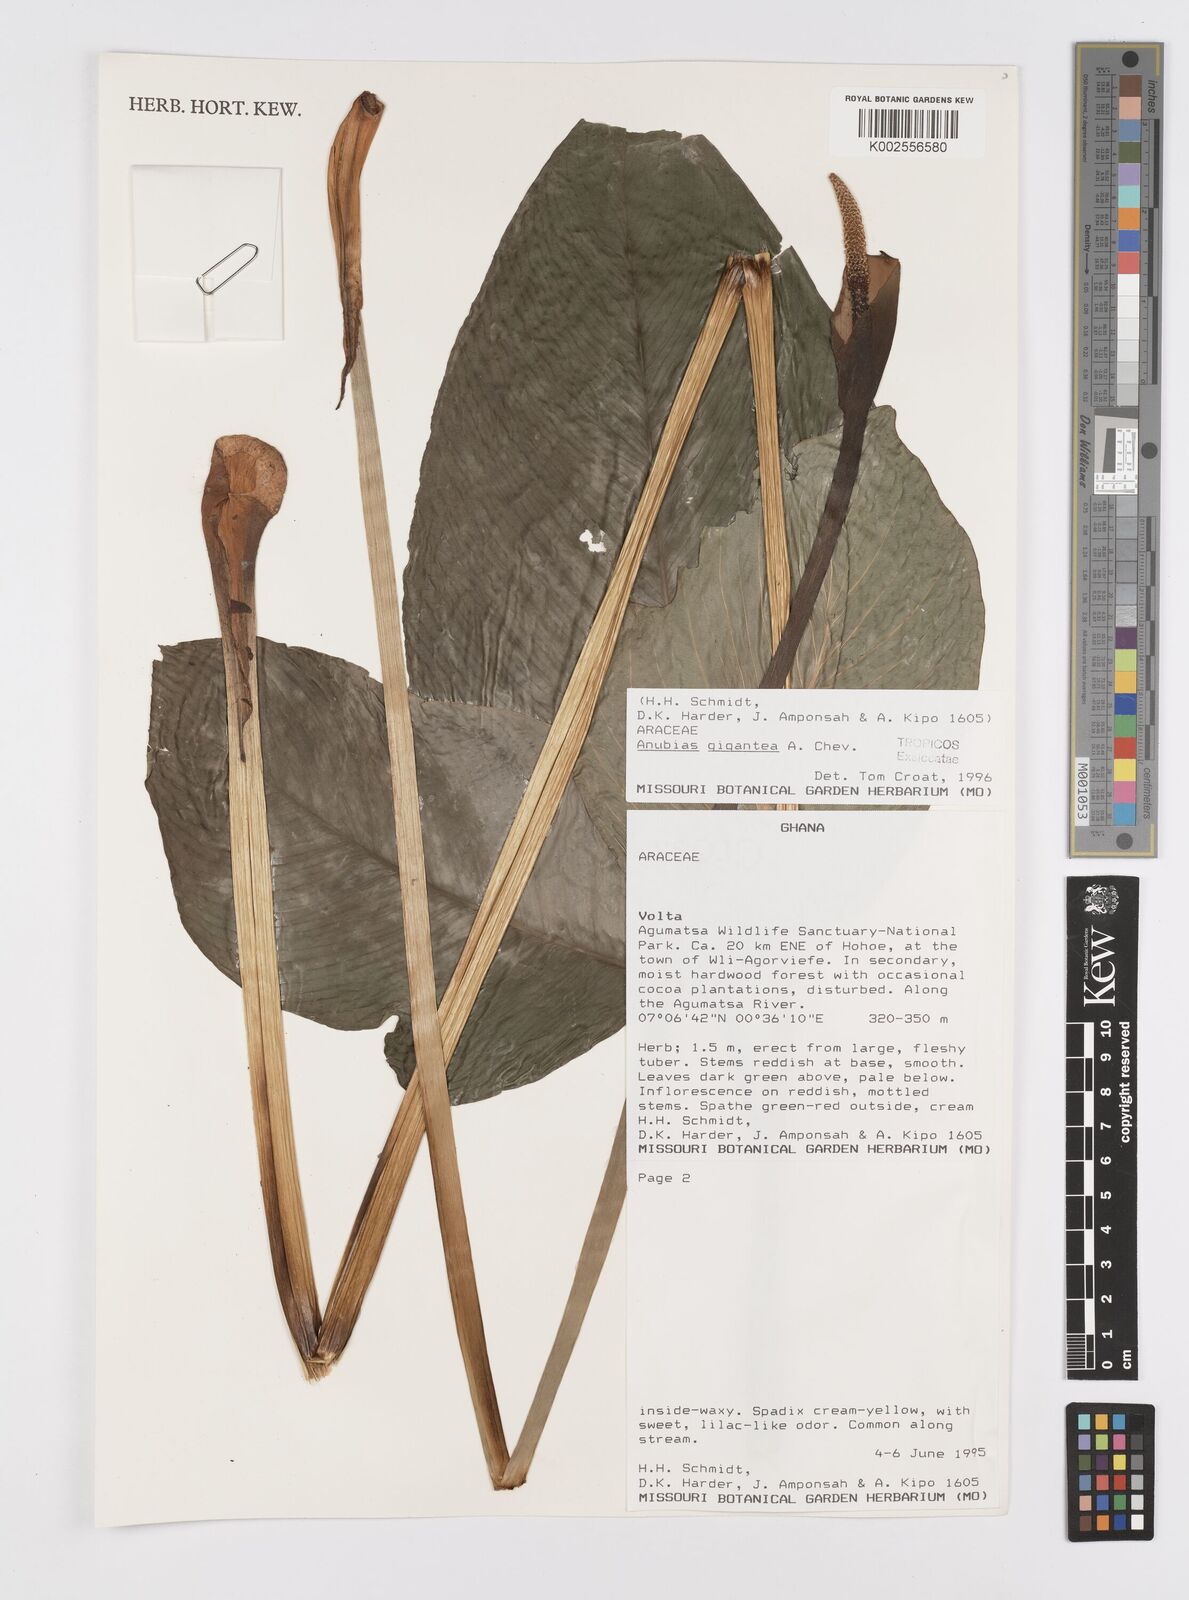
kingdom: Plantae
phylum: Tracheophyta
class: Liliopsida
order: Alismatales
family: Araceae
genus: Anubias
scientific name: Anubias gigantea
